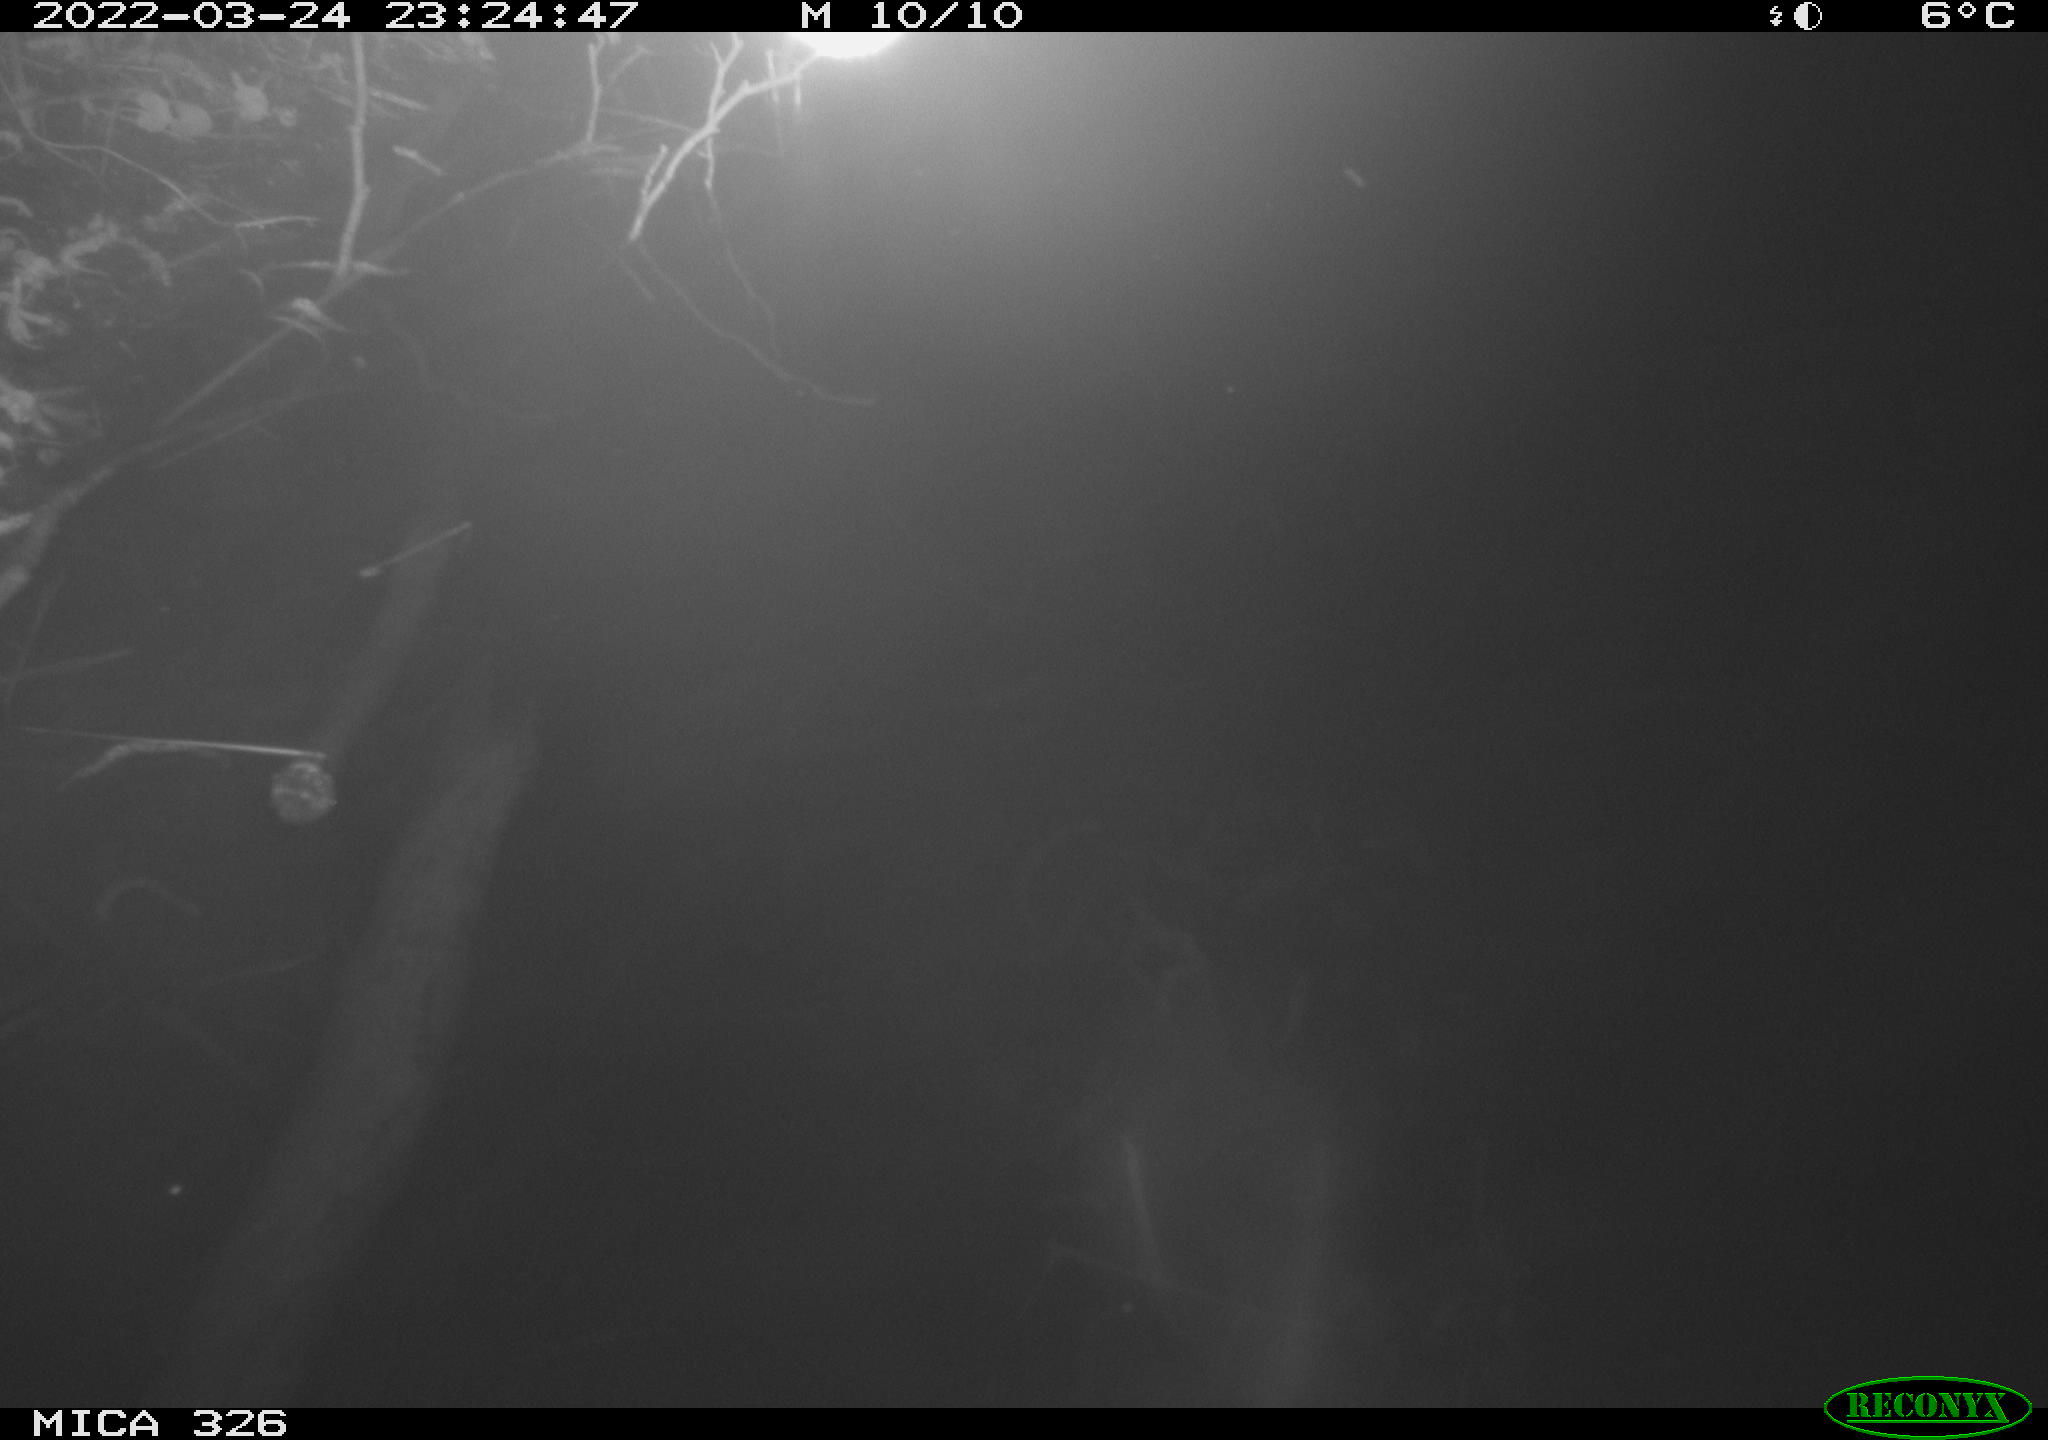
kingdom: Animalia
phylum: Chordata
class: Mammalia
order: Rodentia
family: Muridae
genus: Rattus
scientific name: Rattus norvegicus
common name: Brown rat
